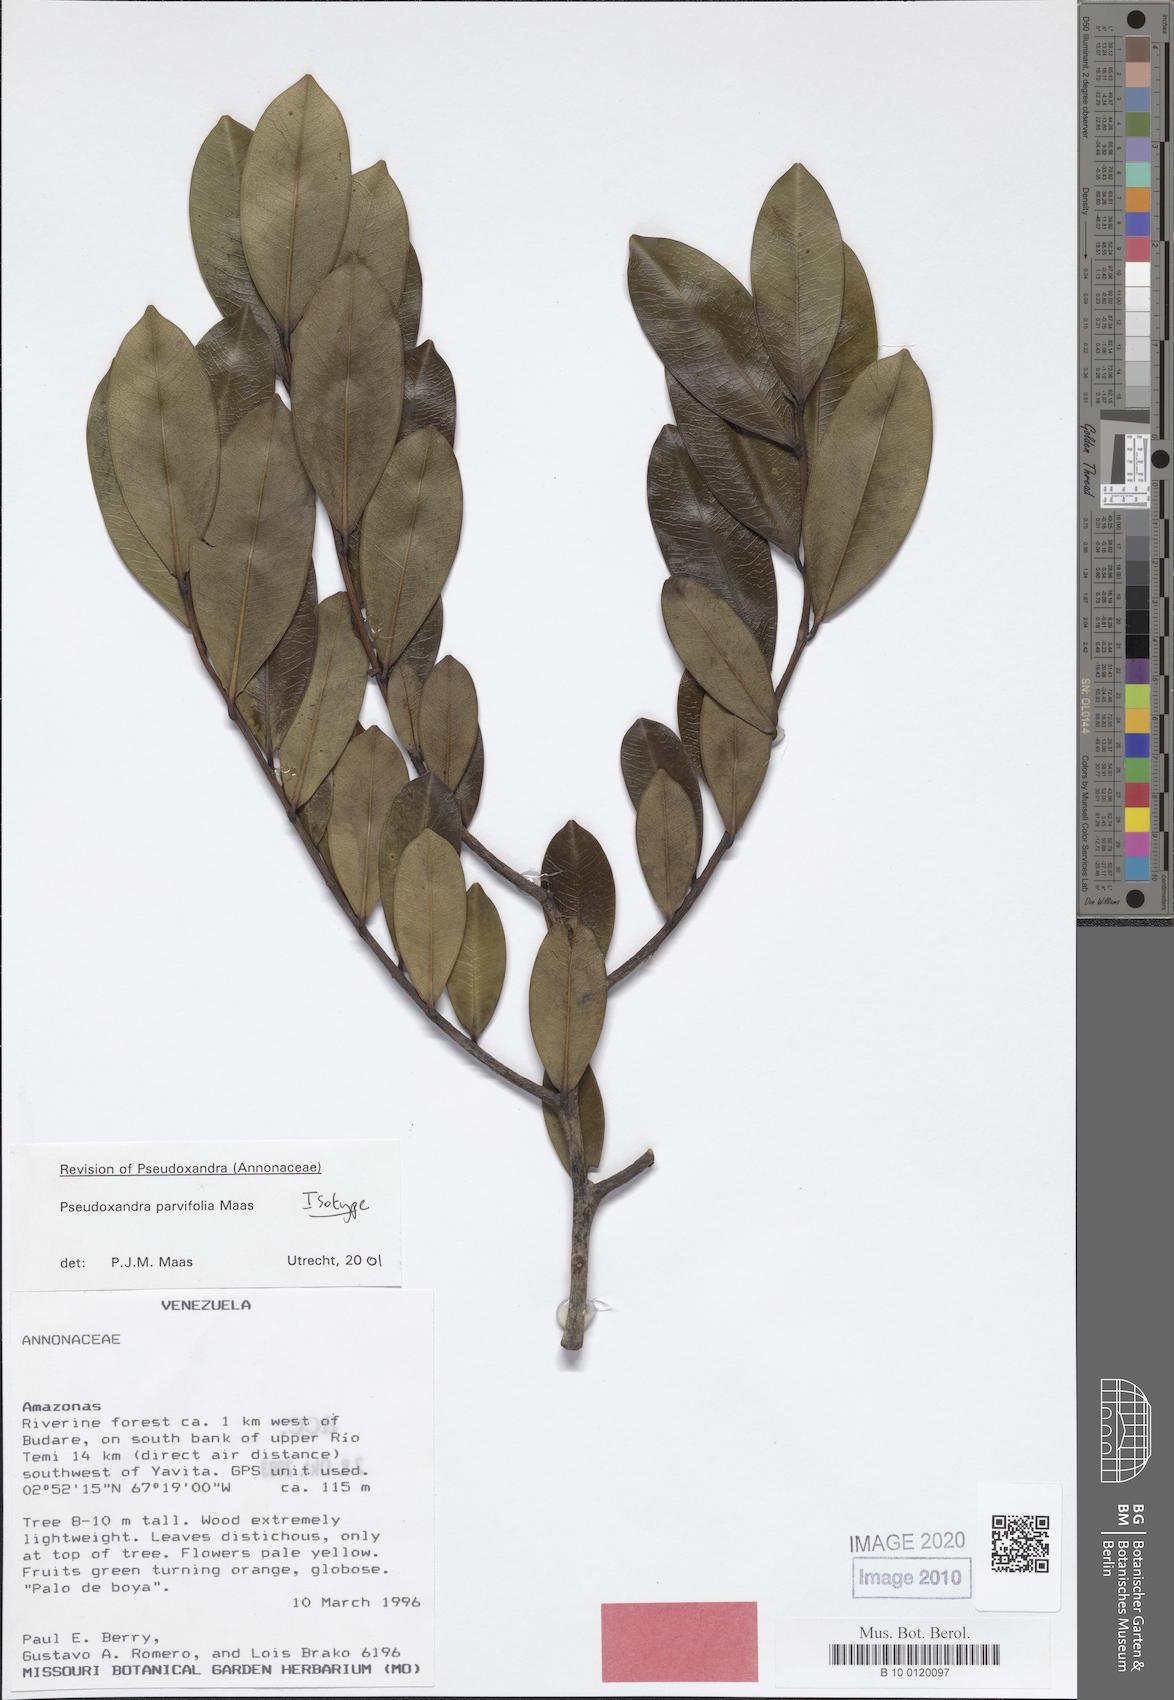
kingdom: Plantae
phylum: Tracheophyta
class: Magnoliopsida
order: Magnoliales
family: Annonaceae
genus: Pseudoxandra
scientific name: Pseudoxandra parvifolia
